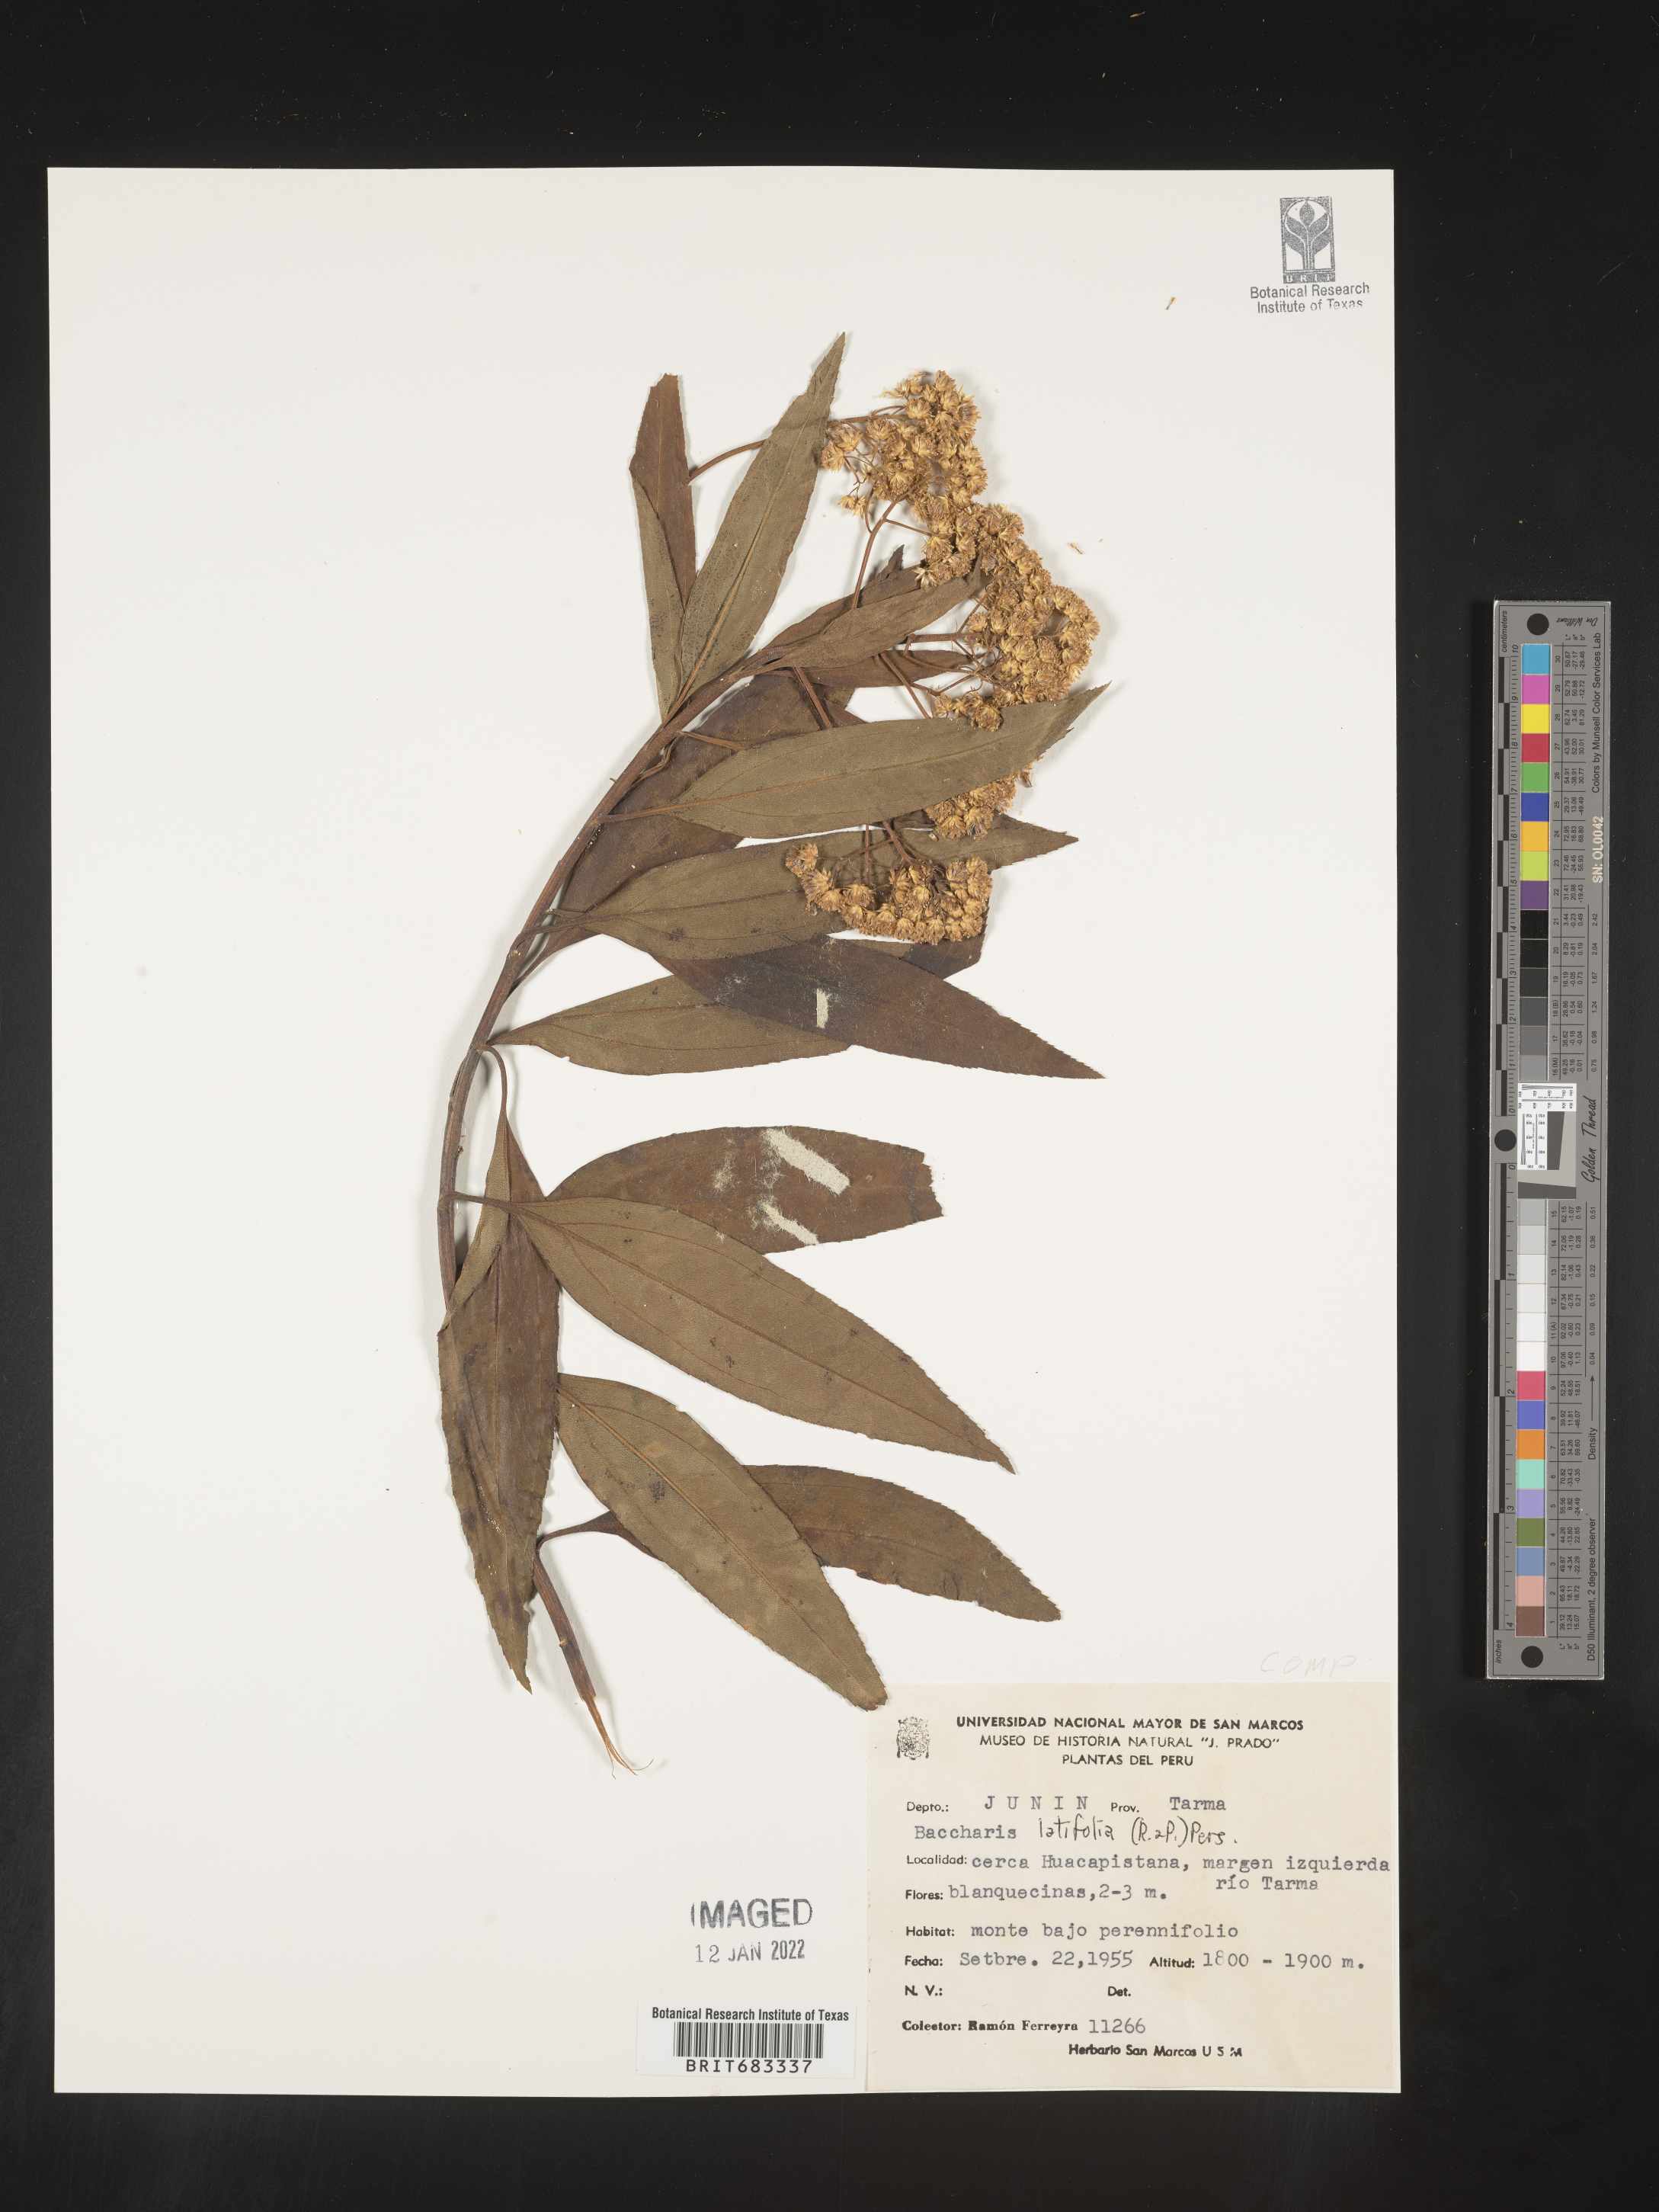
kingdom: Plantae
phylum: Tracheophyta
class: Magnoliopsida
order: Asterales
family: Asteraceae
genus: Baccharis
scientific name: Baccharis
